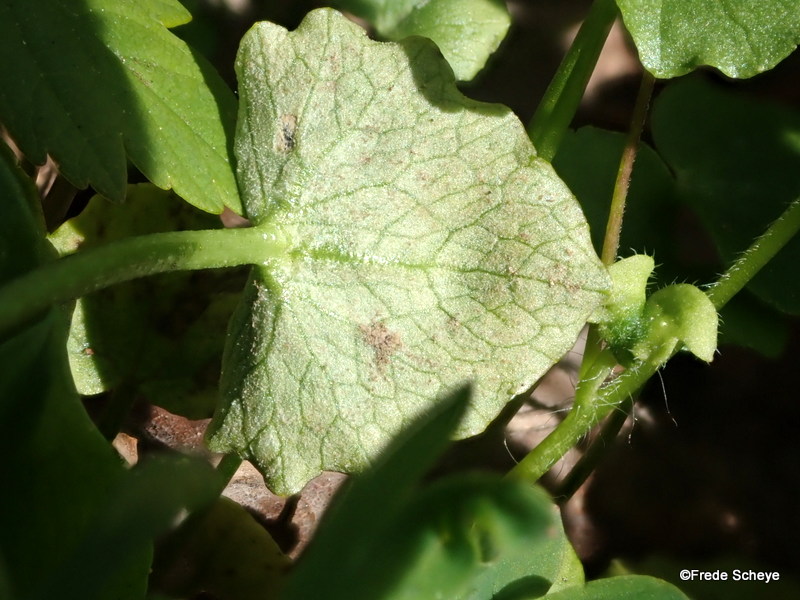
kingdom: Chromista
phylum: Oomycota
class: Peronosporea
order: Peronosporales
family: Peronosporaceae
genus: Peronospora
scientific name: Peronospora ficariae
